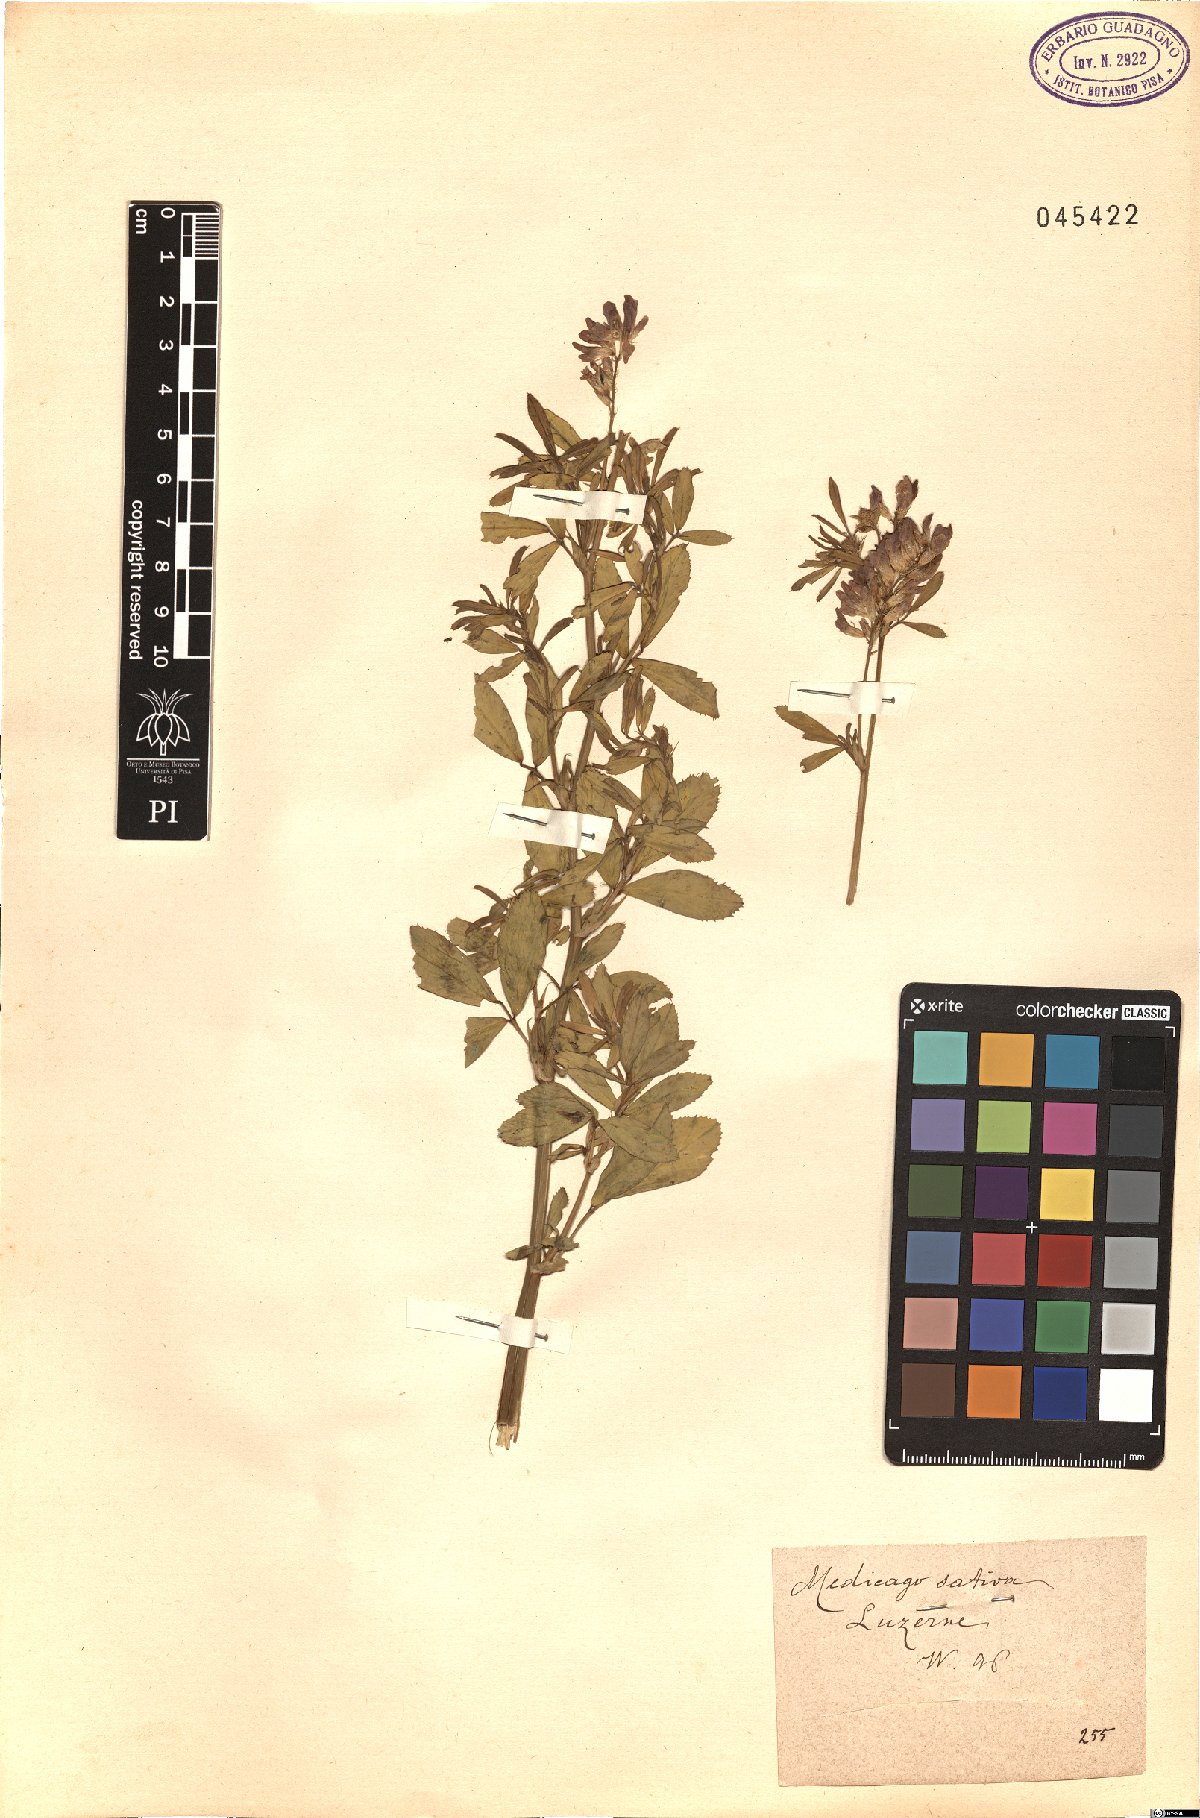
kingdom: Plantae
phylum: Tracheophyta
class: Magnoliopsida
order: Fabales
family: Fabaceae
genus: Medicago
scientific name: Medicago sativa
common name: Alfalfa
